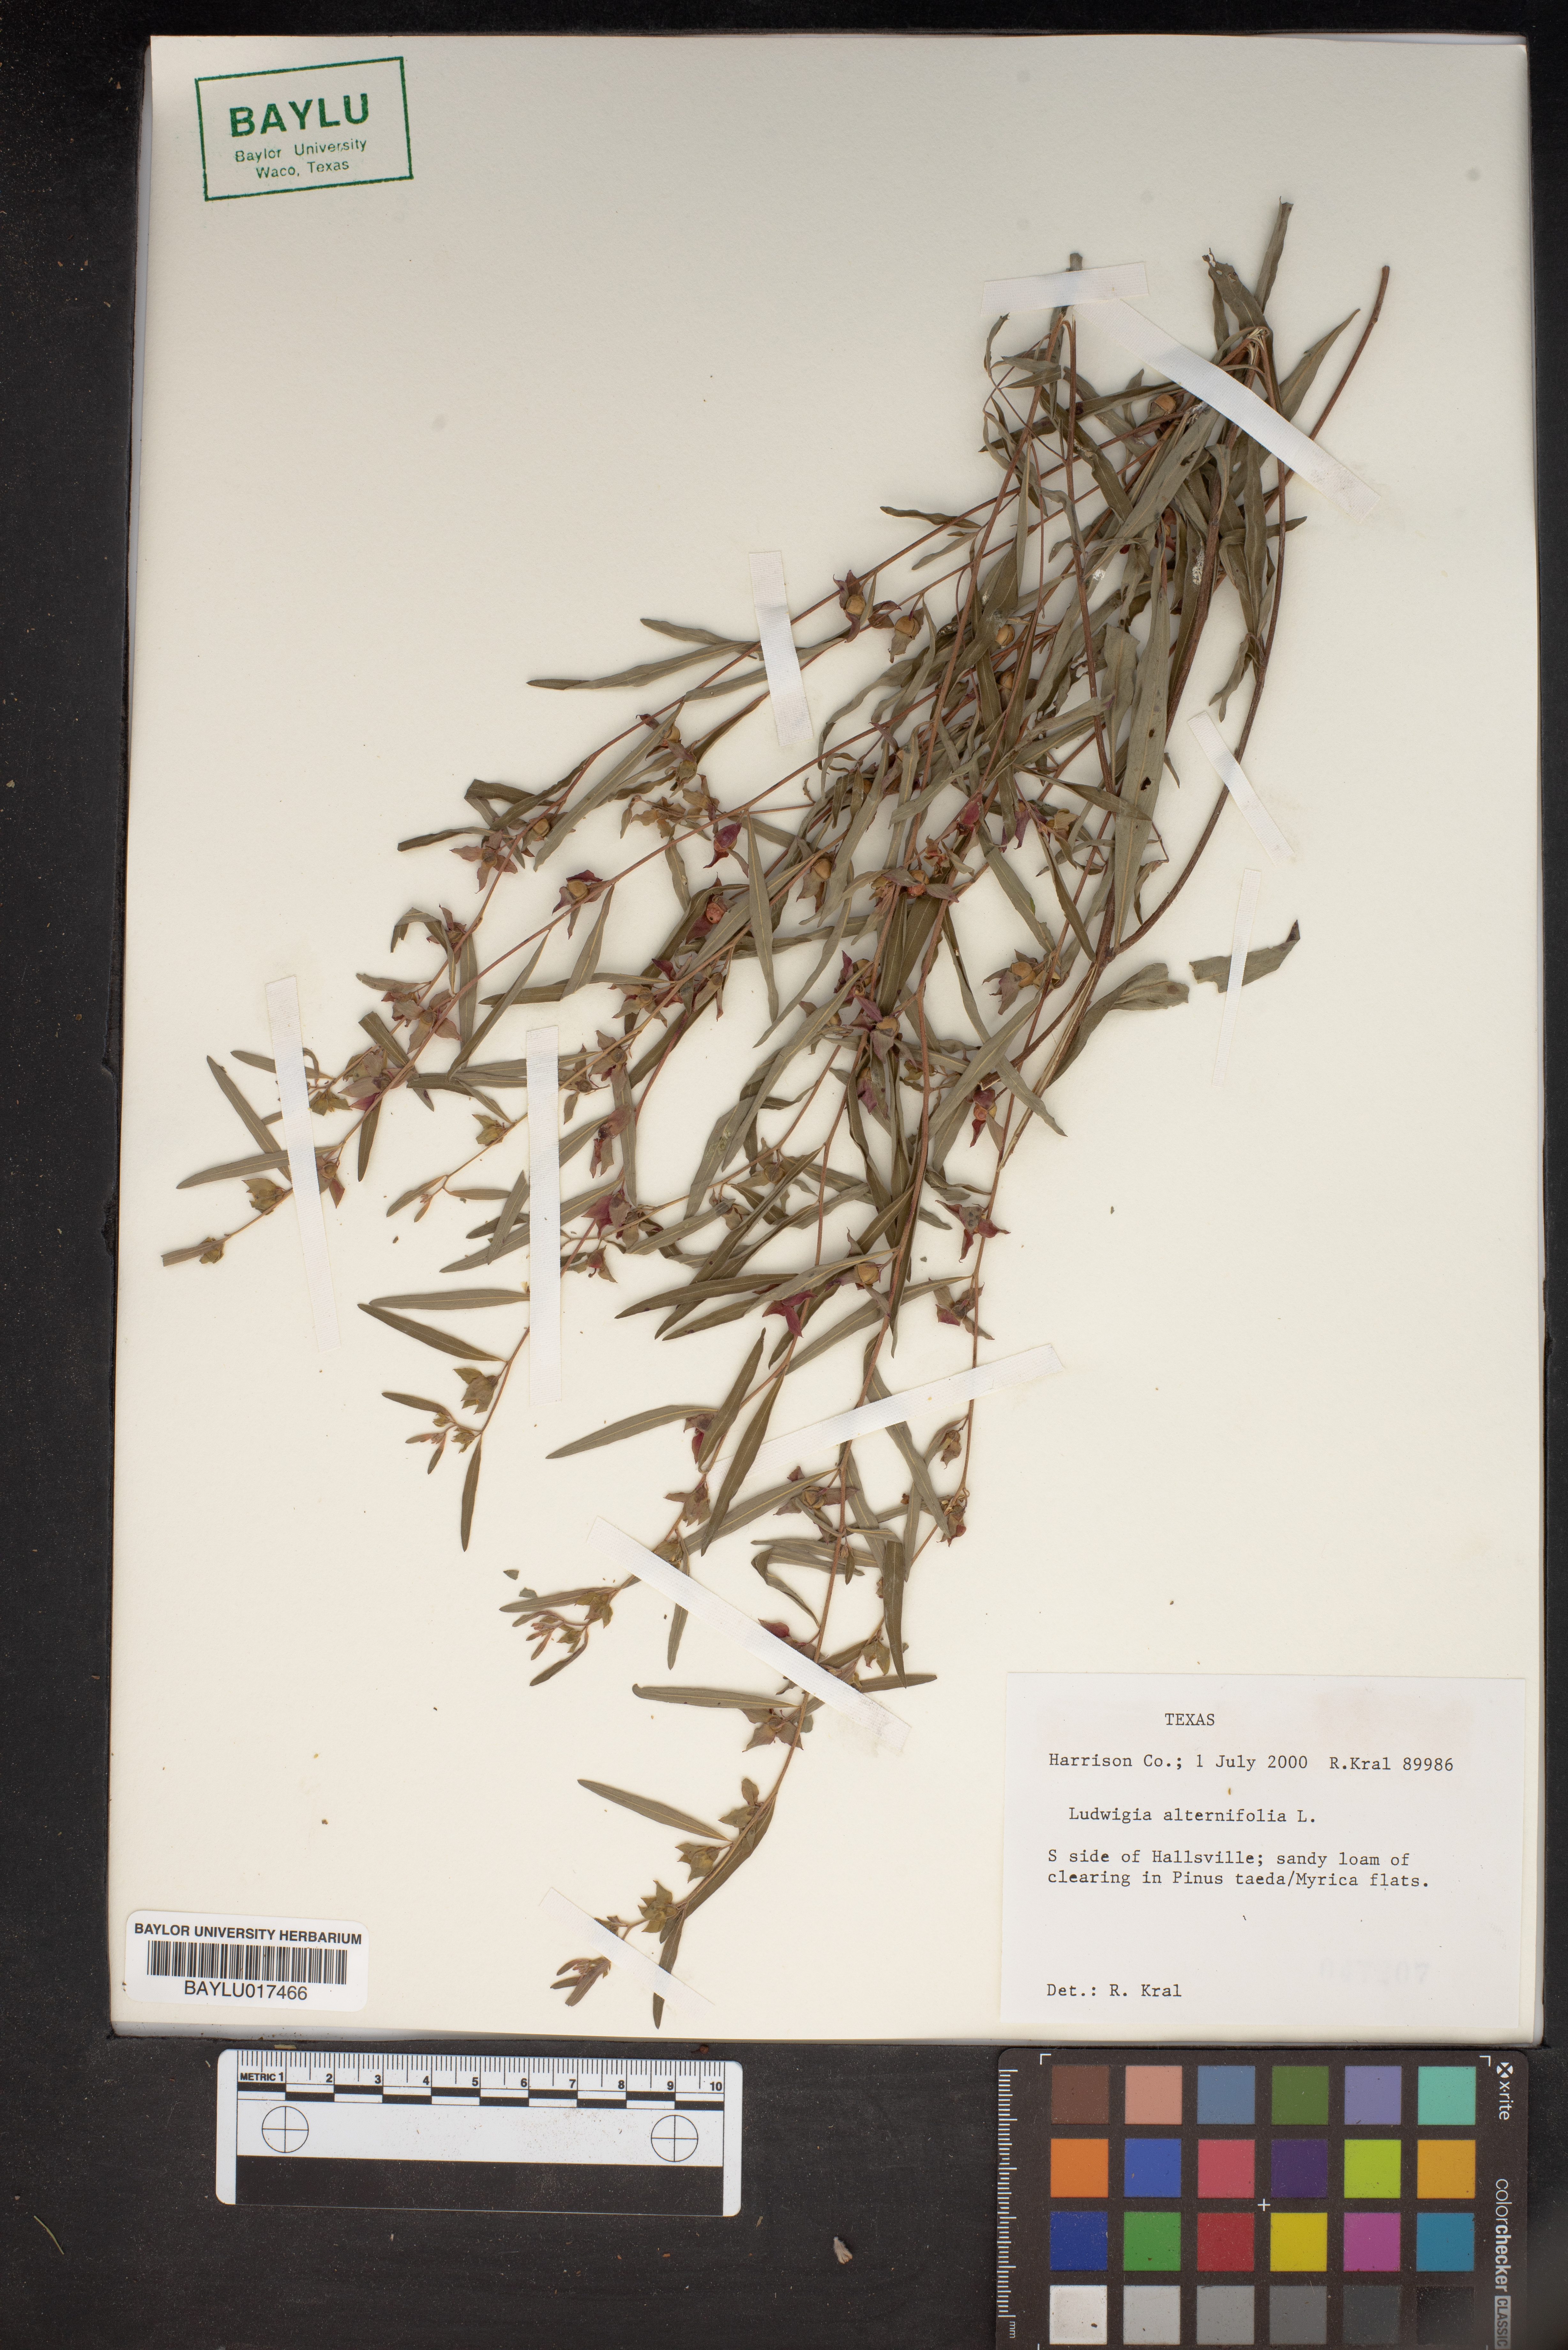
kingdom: Plantae
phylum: Tracheophyta
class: Magnoliopsida
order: Myrtales
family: Onagraceae
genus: Ludwigia
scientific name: Ludwigia alternifolia
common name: Rattlebox
